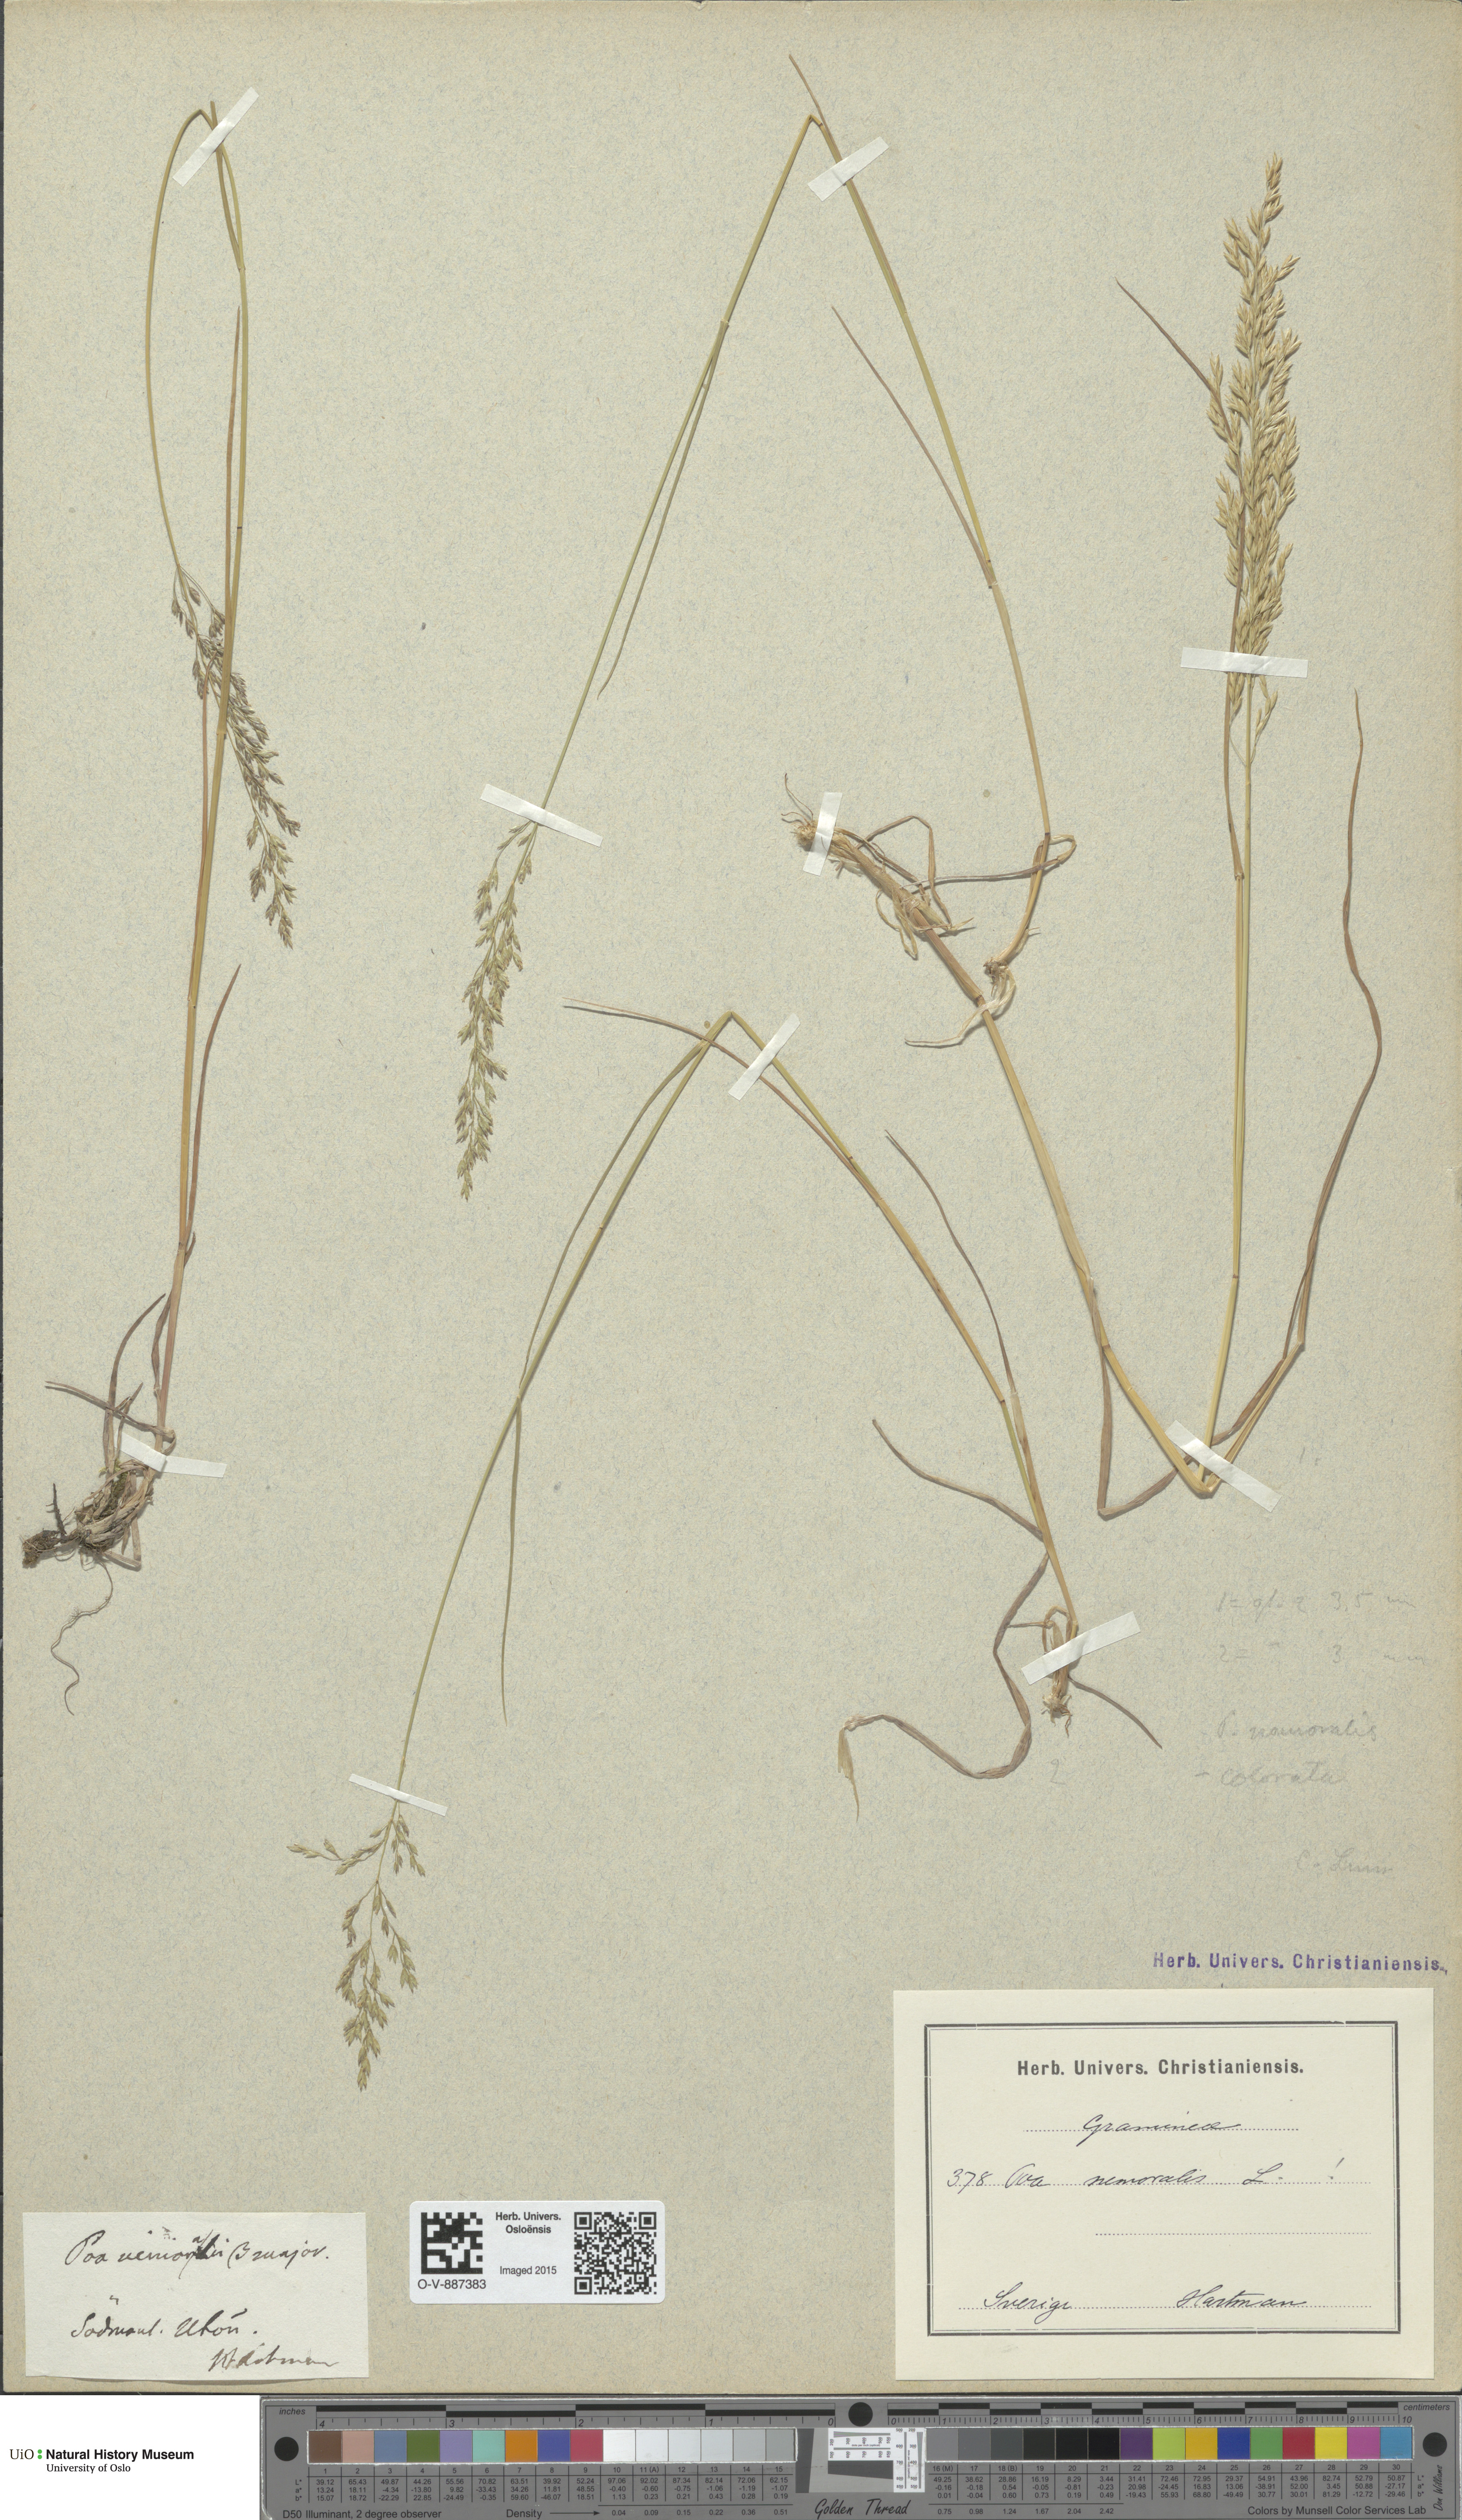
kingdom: Plantae
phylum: Tracheophyta
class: Liliopsida
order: Poales
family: Poaceae
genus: Poa
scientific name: Poa nemoralis
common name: Wood bluegrass
